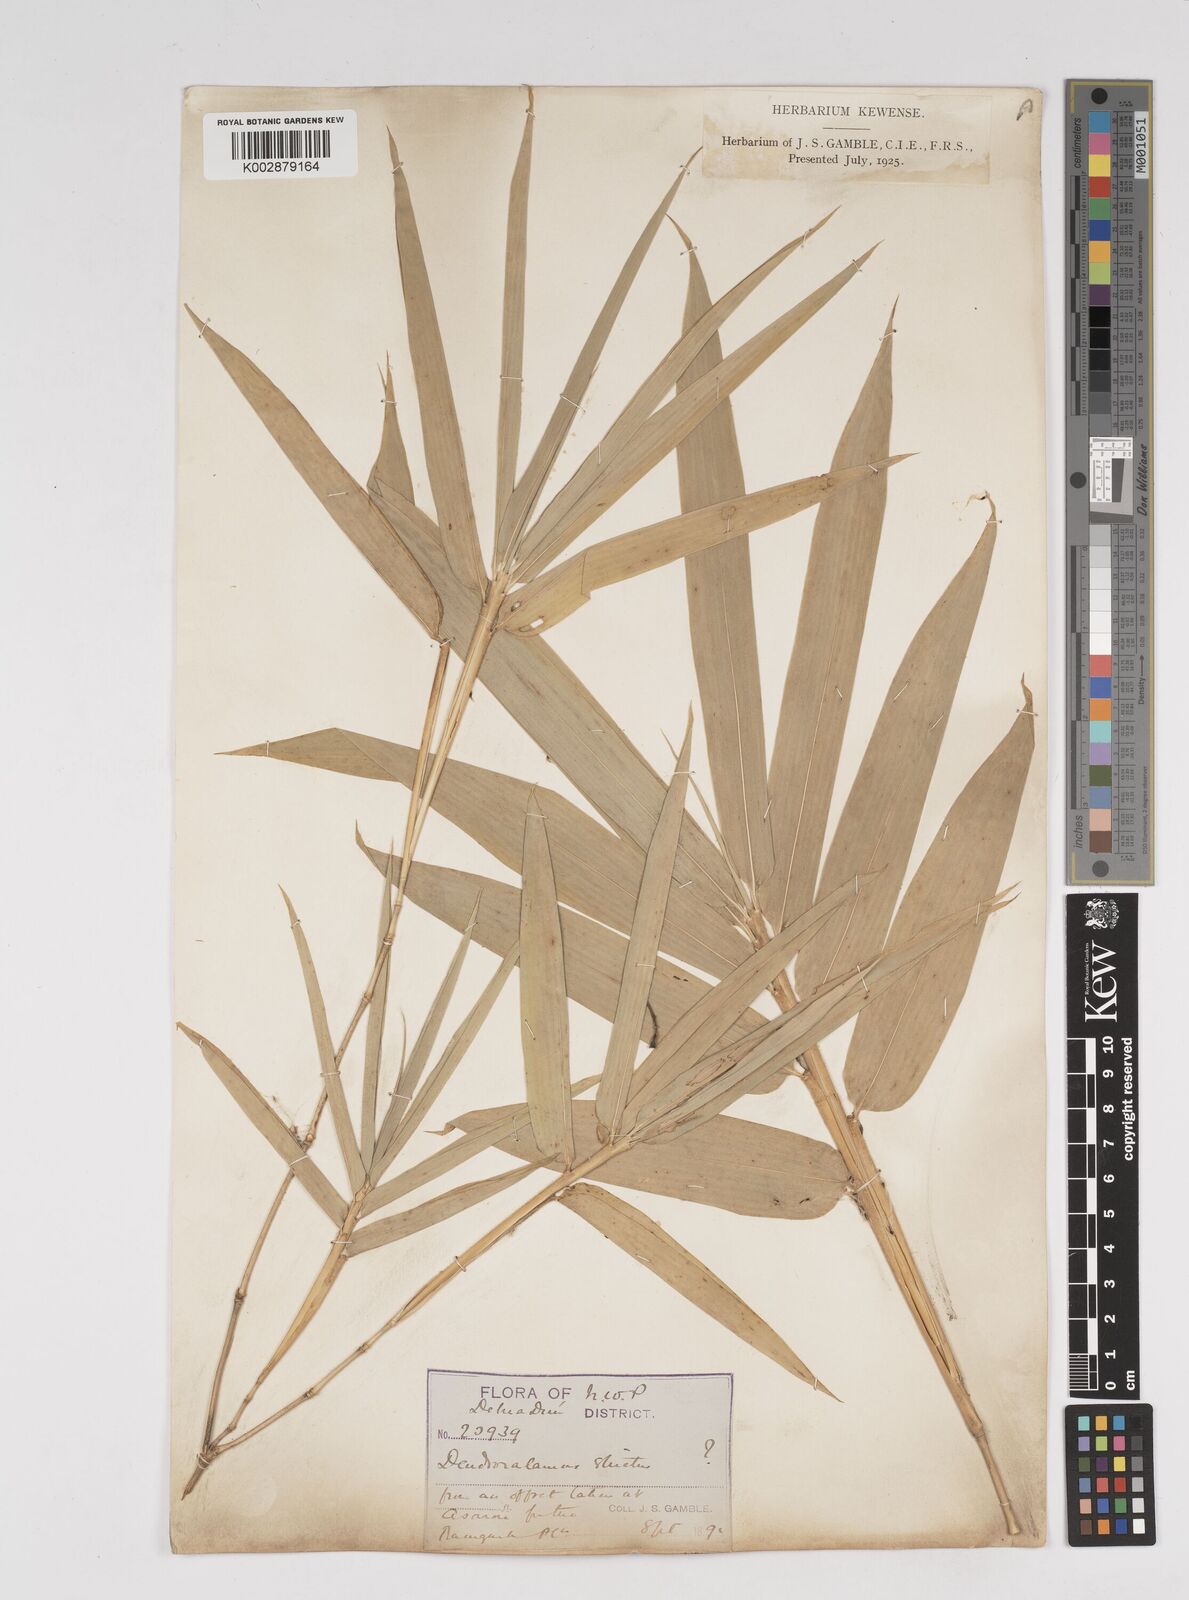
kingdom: Plantae
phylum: Tracheophyta
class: Liliopsida
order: Poales
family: Poaceae
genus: Dendrocalamus
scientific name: Dendrocalamus strictus
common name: Male bamboo
